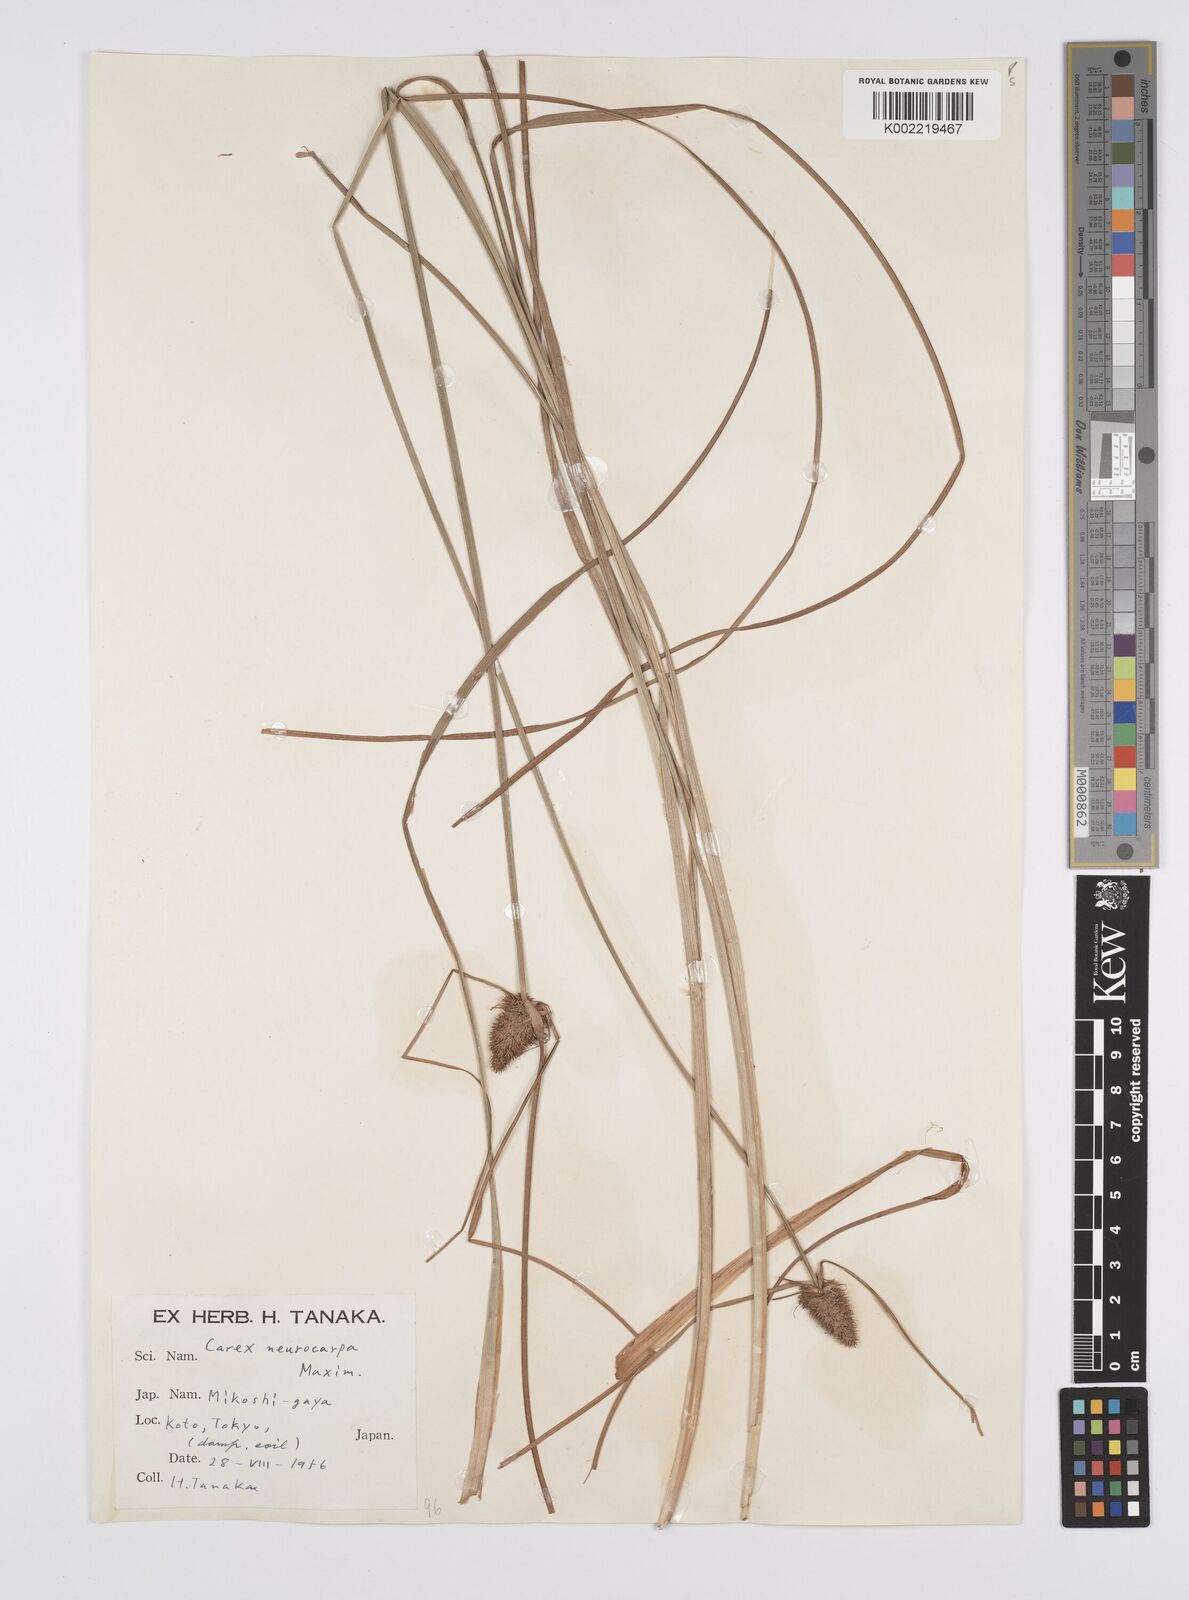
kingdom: Plantae
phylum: Tracheophyta
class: Liliopsida
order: Poales
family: Cyperaceae
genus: Carex
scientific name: Carex neurocarpa
